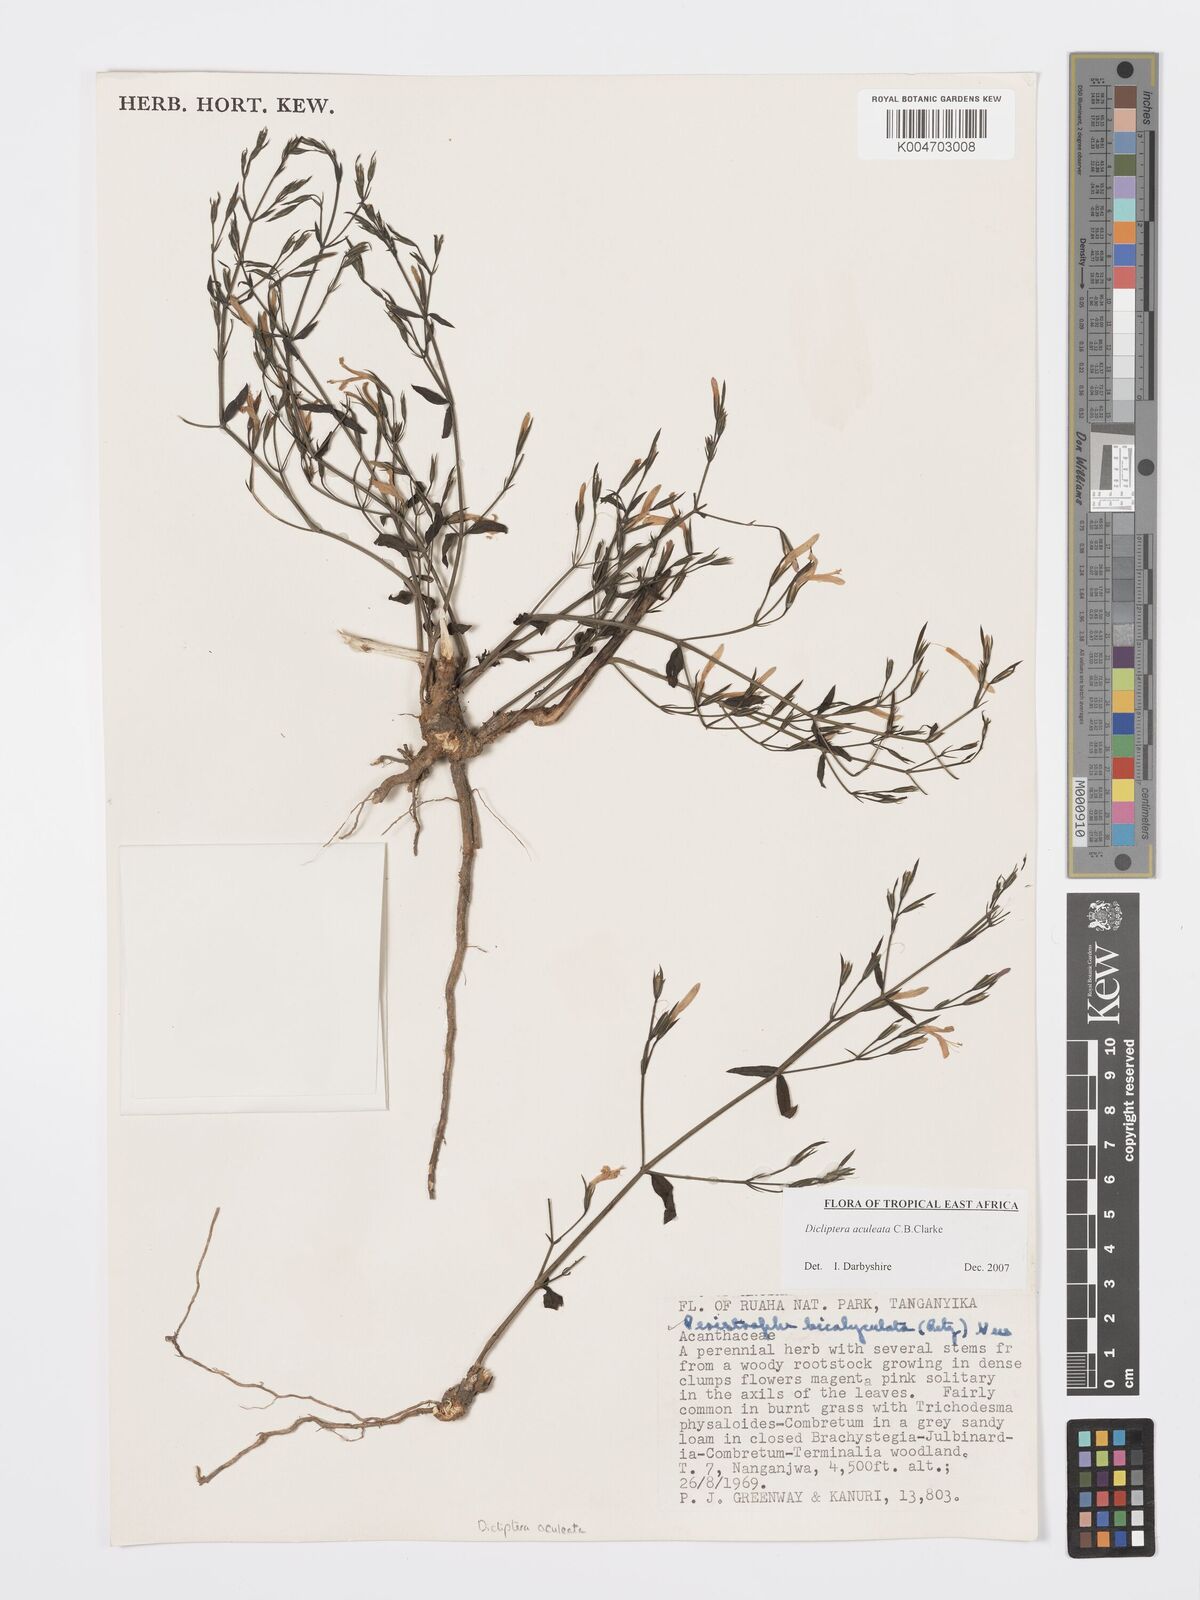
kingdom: Plantae
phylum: Tracheophyta
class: Magnoliopsida
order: Lamiales
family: Acanthaceae
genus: Dicliptera
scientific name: Dicliptera hensii
